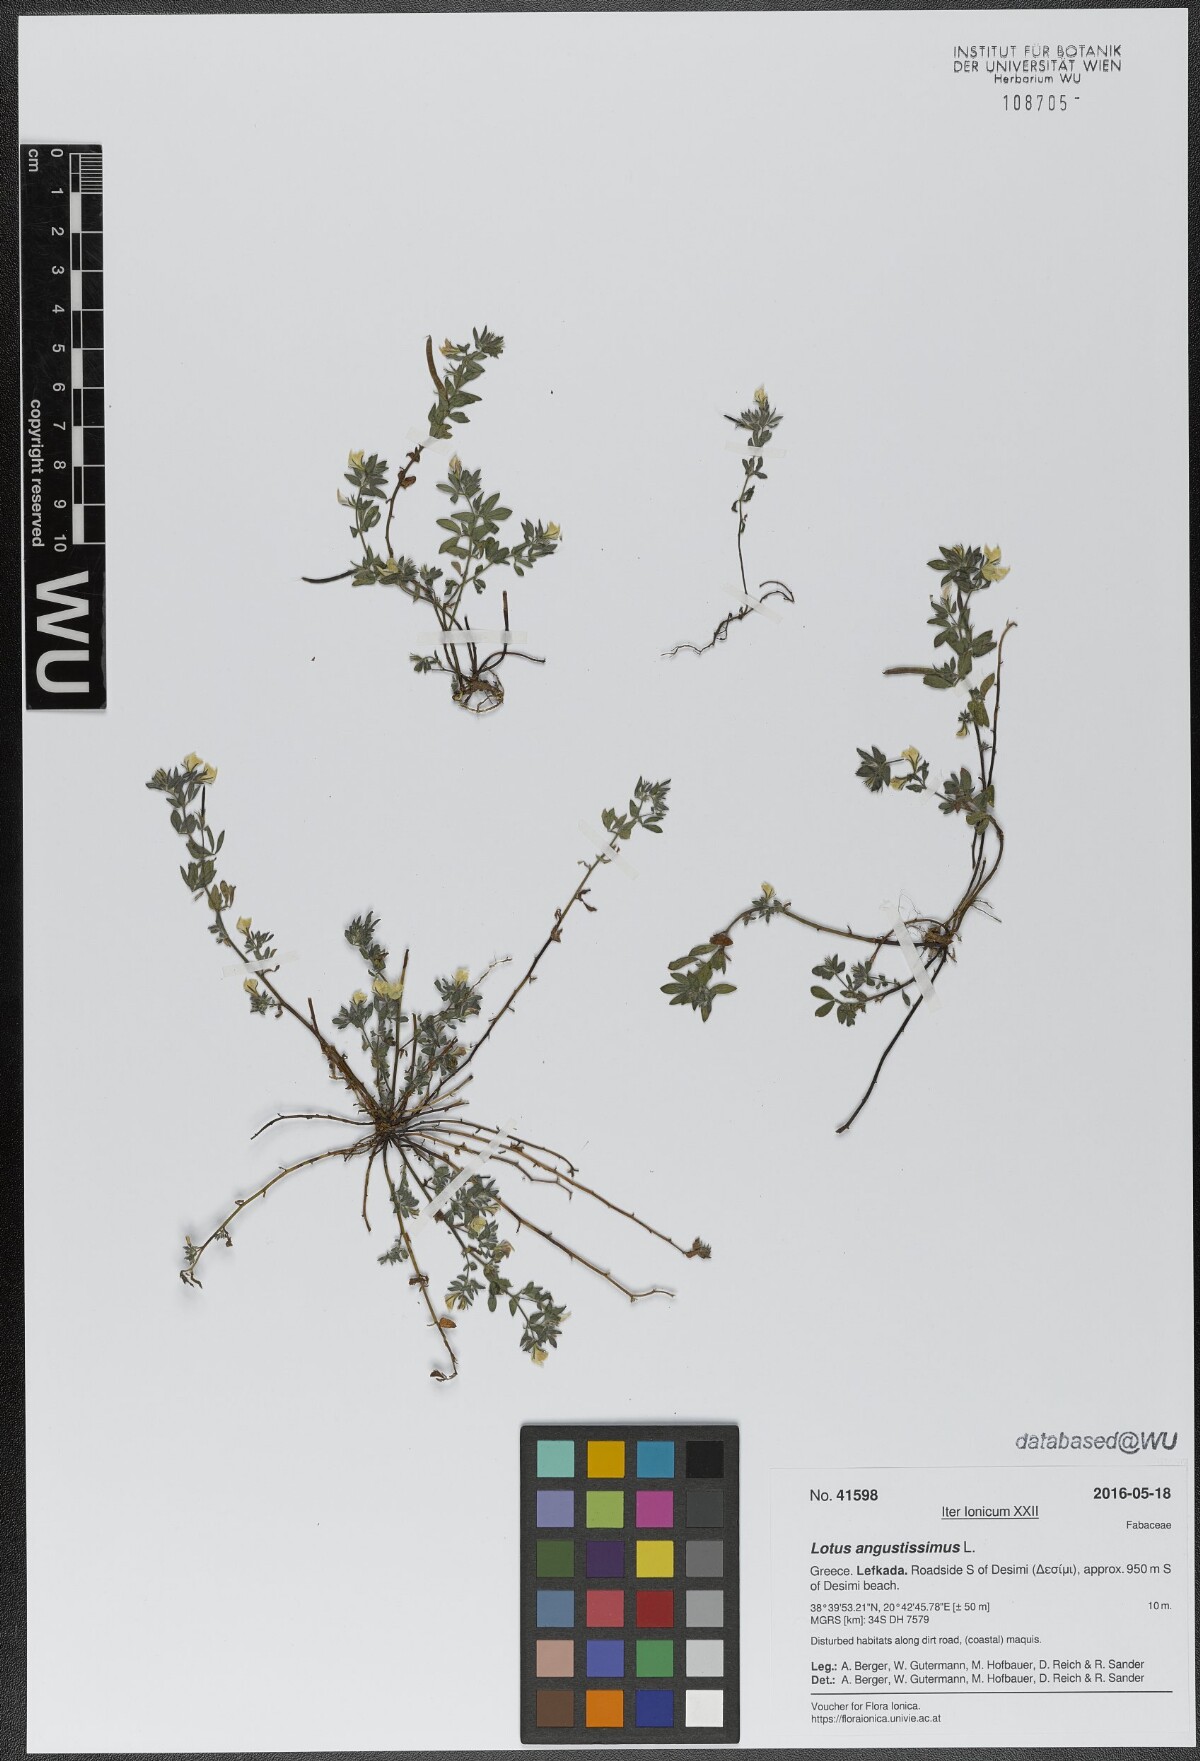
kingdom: Plantae
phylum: Tracheophyta
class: Magnoliopsida
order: Fabales
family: Fabaceae
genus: Lotus
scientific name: Lotus angustissimus
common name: Slender bird's-foot trefoil
